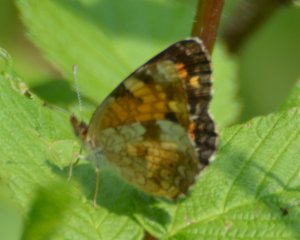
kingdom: Animalia
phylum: Arthropoda
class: Insecta
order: Lepidoptera
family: Nymphalidae
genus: Phyciodes
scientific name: Phyciodes tharos
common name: Northern Crescent
